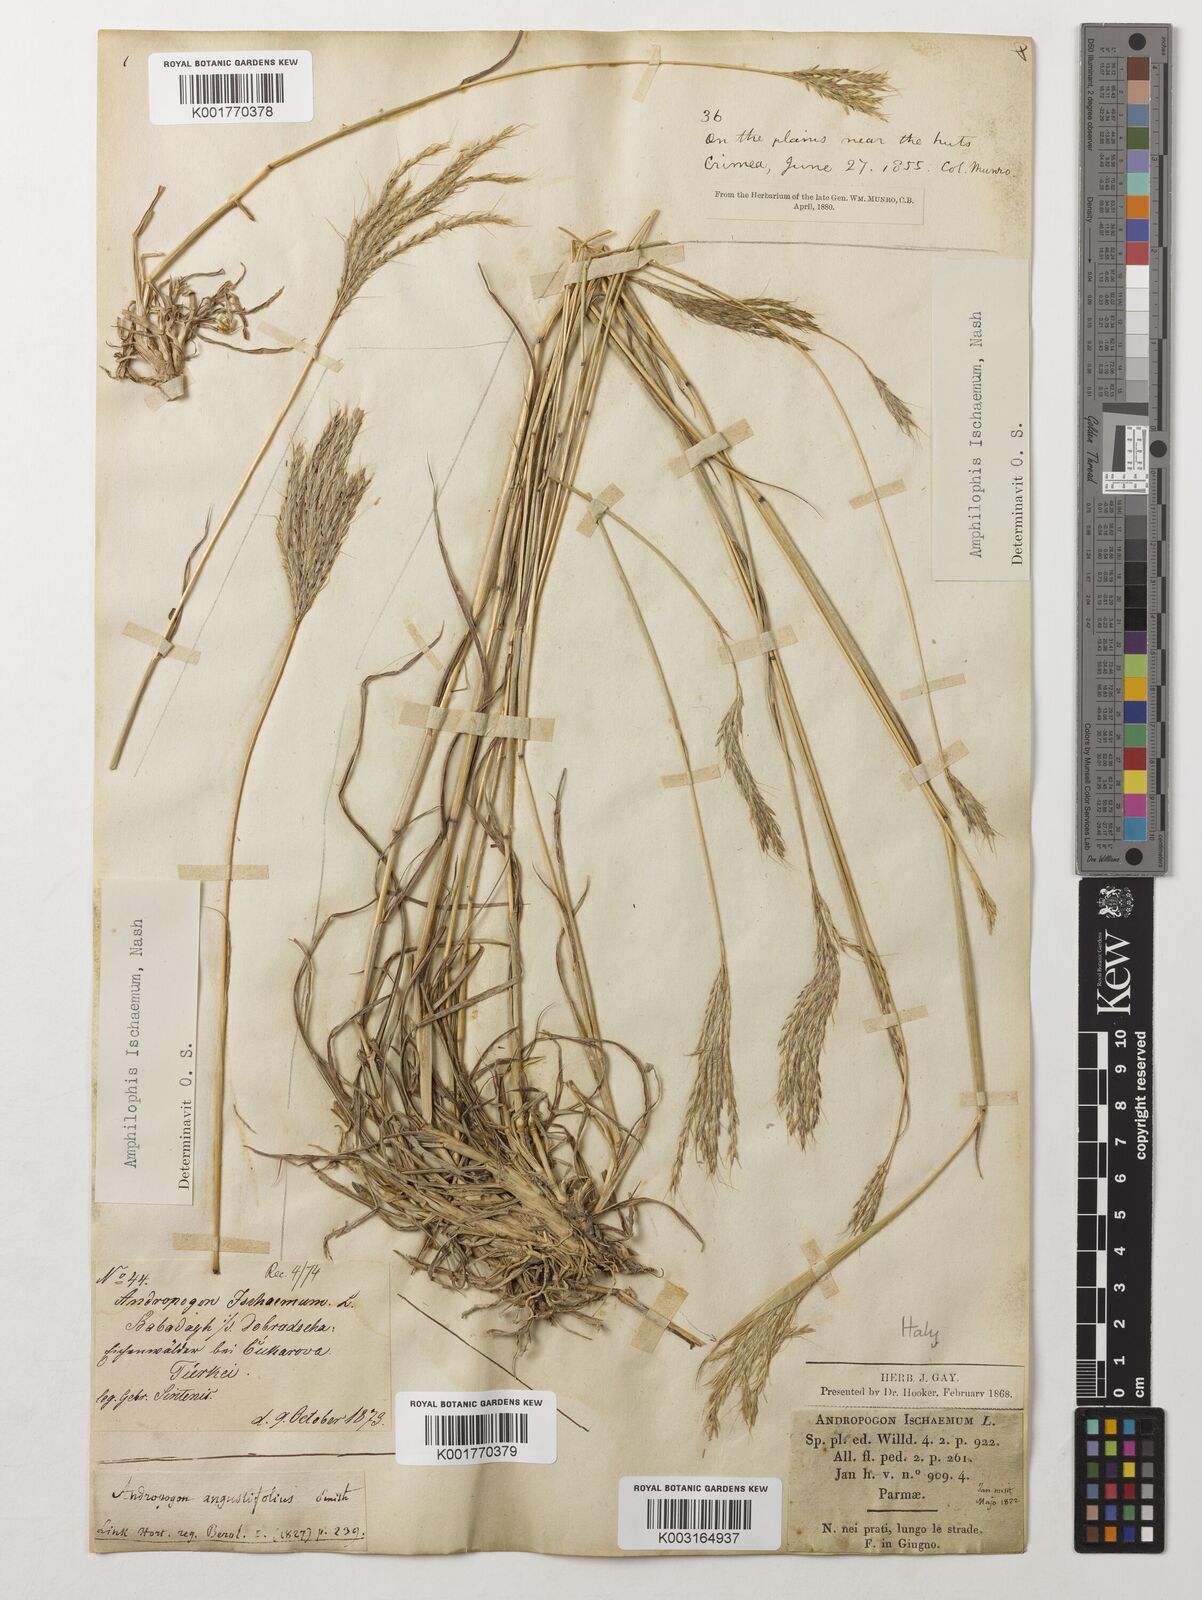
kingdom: Plantae
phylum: Tracheophyta
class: Liliopsida
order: Poales
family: Poaceae
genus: Bothriochloa
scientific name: Bothriochloa ischaemum
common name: Yellow bluestem
